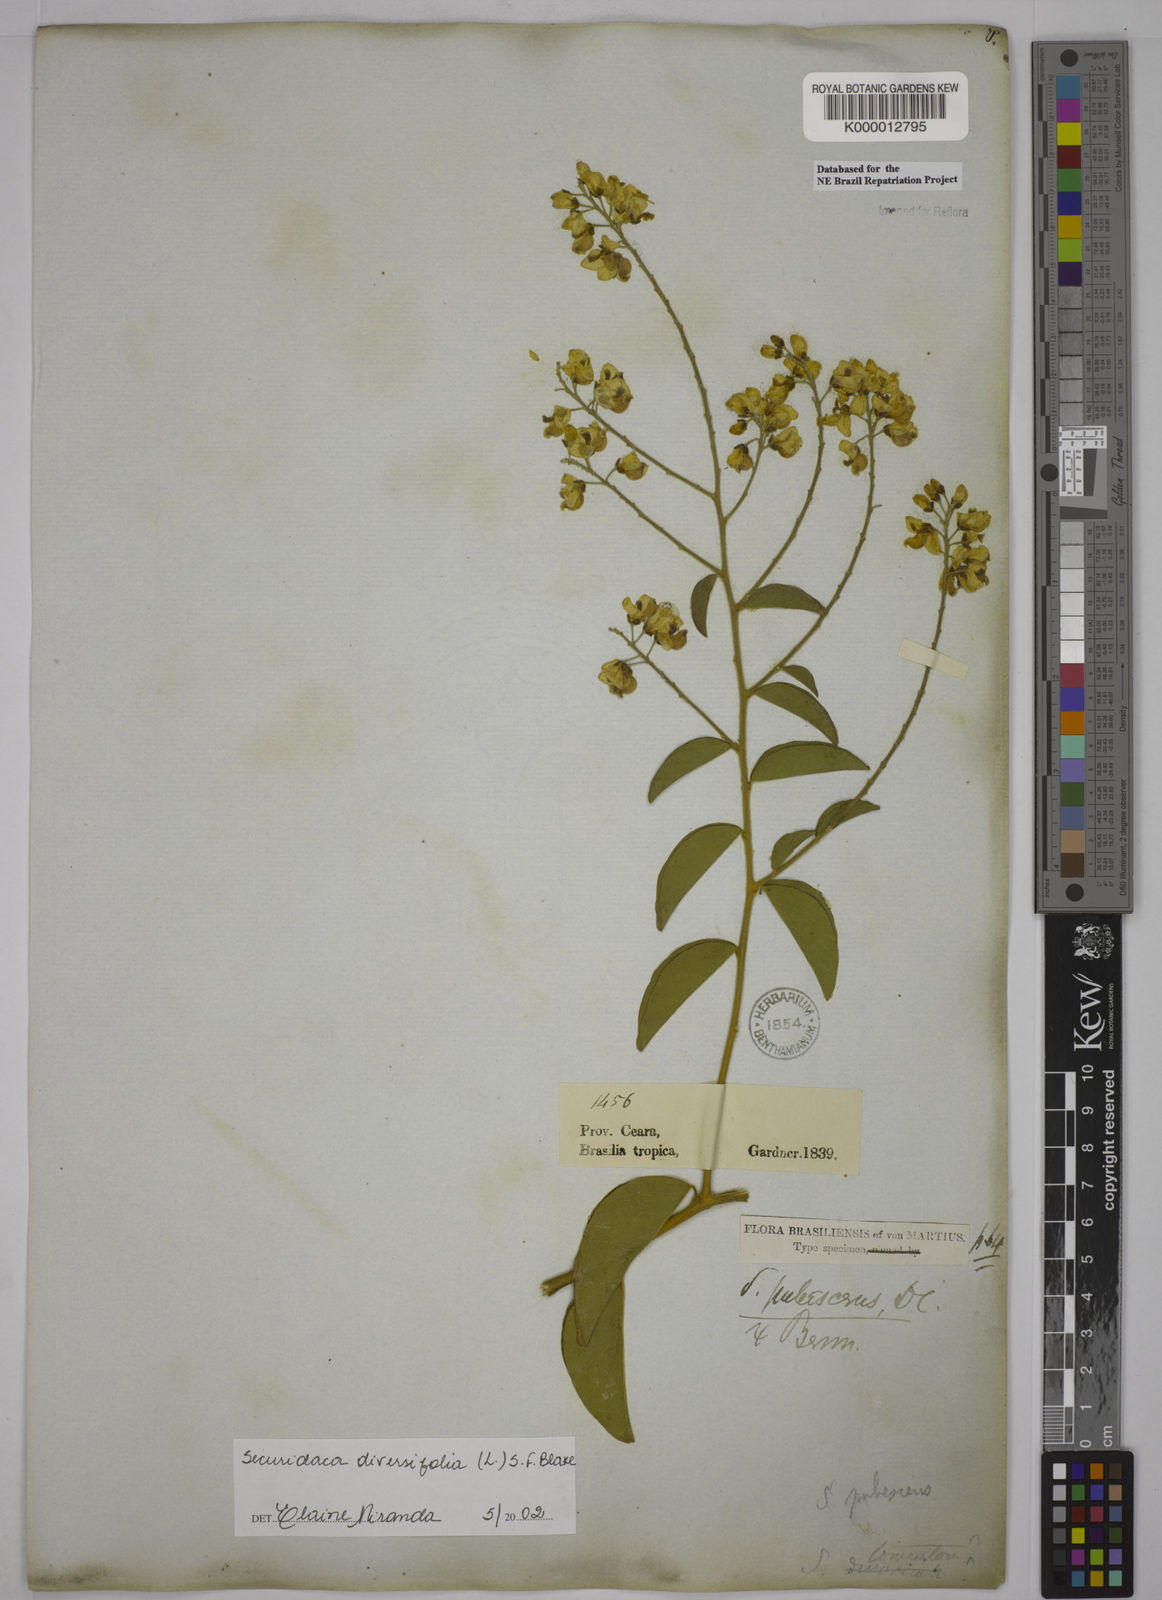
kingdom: Plantae
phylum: Tracheophyta
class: Magnoliopsida
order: Fabales
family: Polygalaceae
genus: Securidaca
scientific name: Securidaca diversifolia
